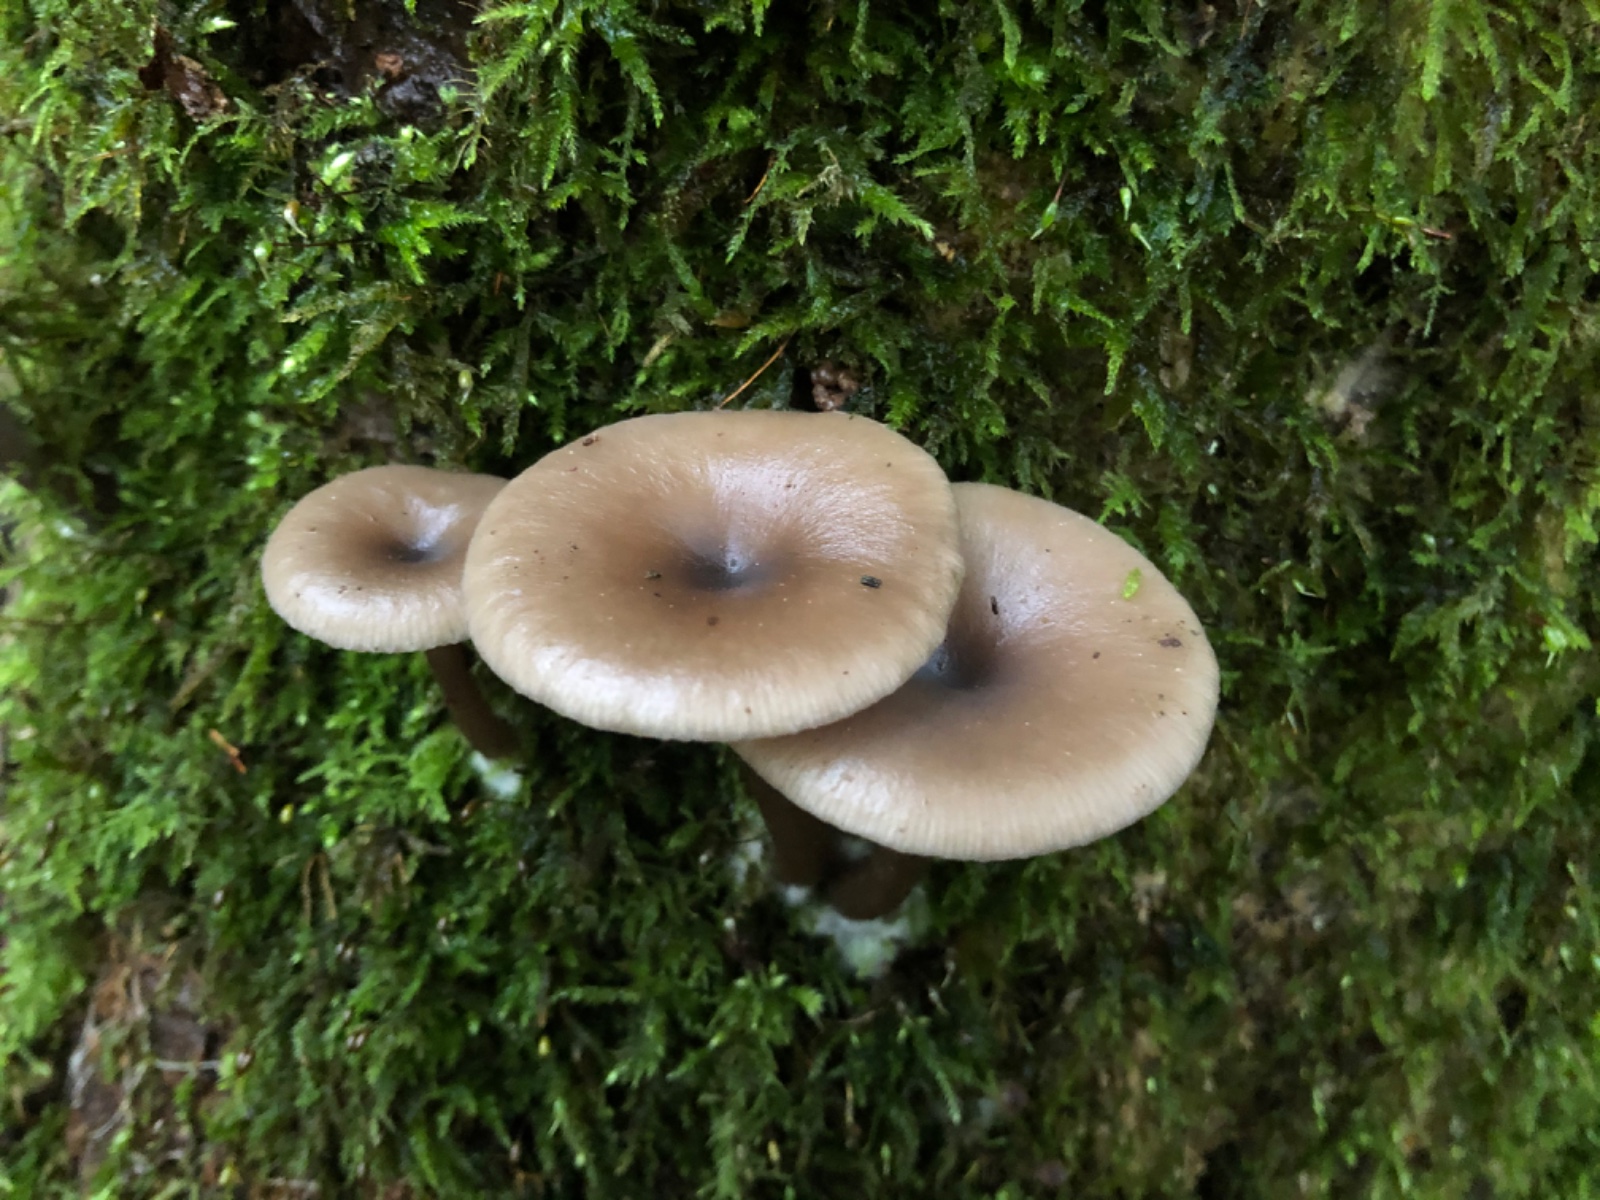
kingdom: Fungi
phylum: Basidiomycota
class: Agaricomycetes
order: Agaricales
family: Pseudoclitocybaceae
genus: Pseudoclitocybe
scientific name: Pseudoclitocybe cyathiformis
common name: almindelig bægertragthat
